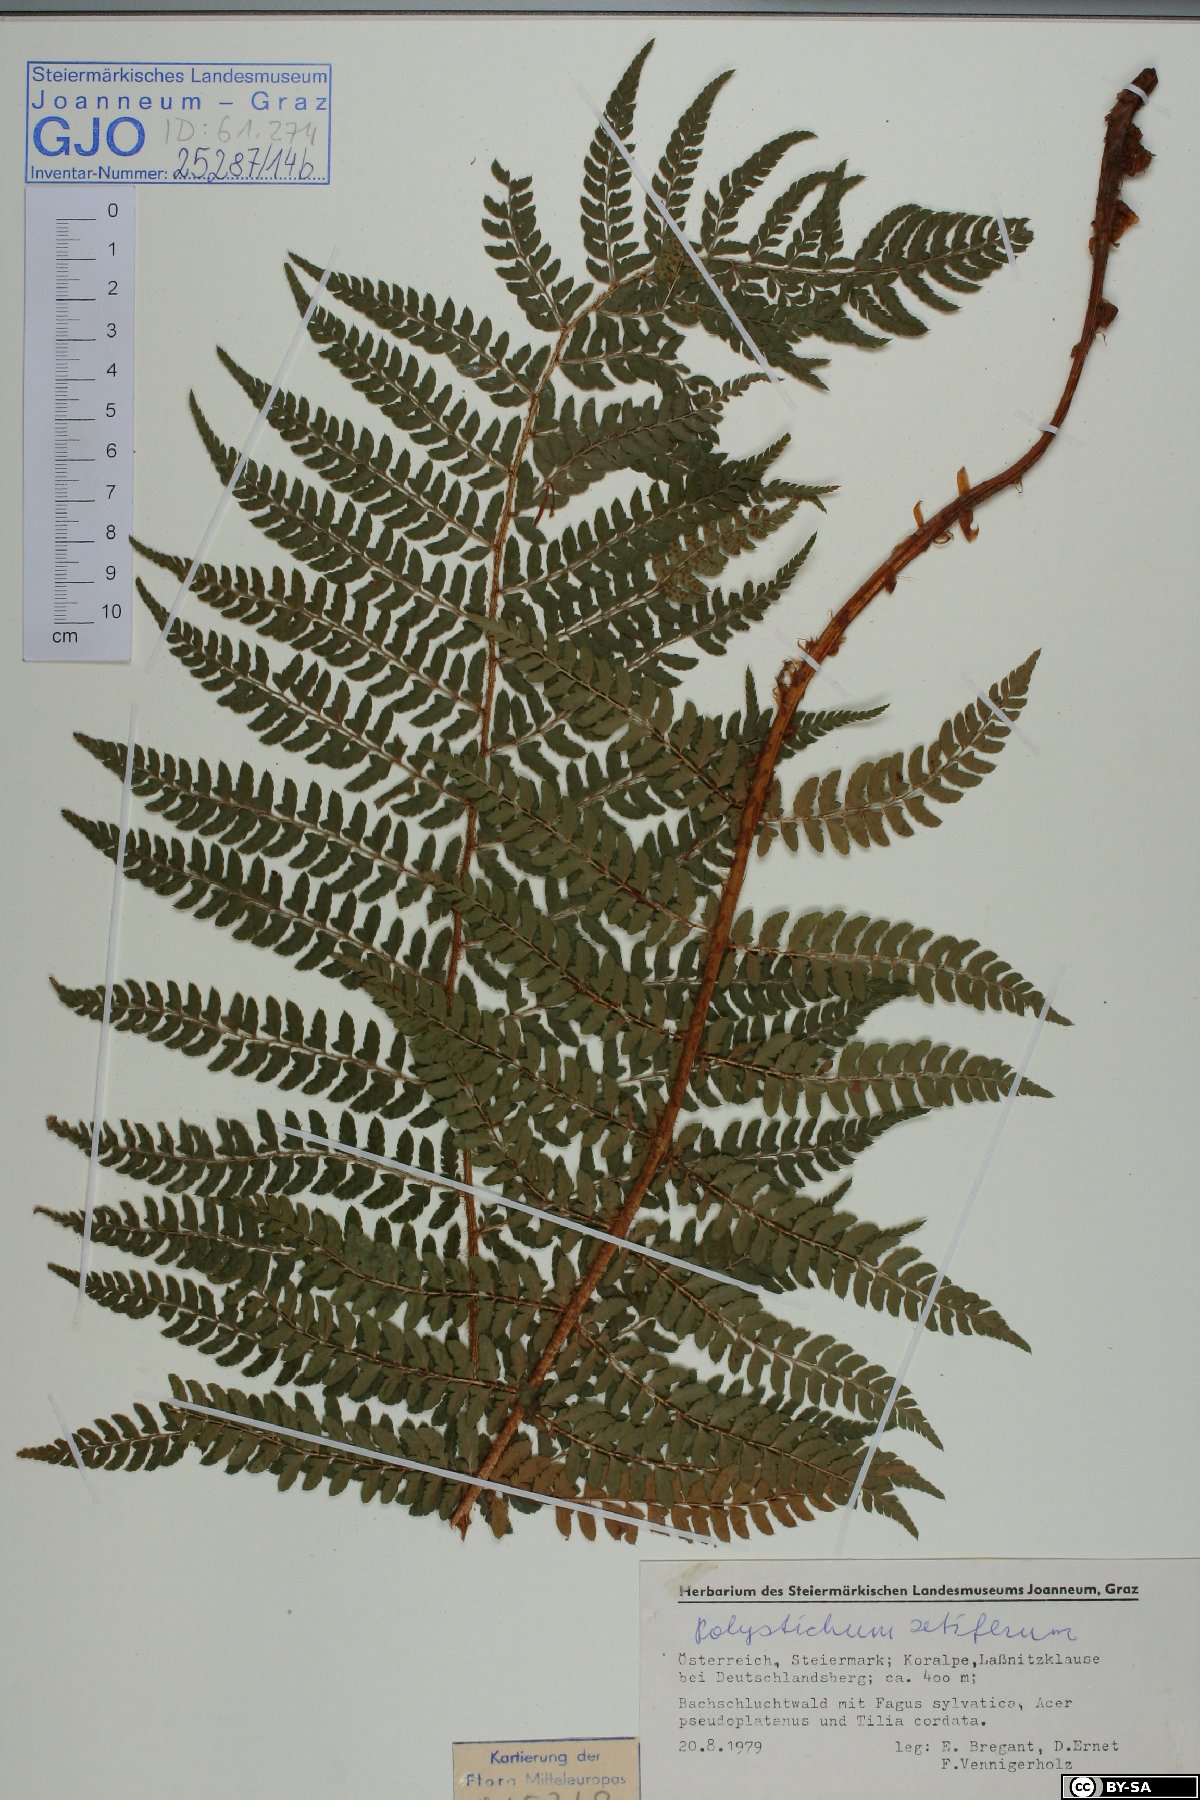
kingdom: Plantae
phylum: Tracheophyta
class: Polypodiopsida
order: Polypodiales
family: Dryopteridaceae
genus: Polystichum
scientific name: Polystichum setiferum
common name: Soft shield-fern
